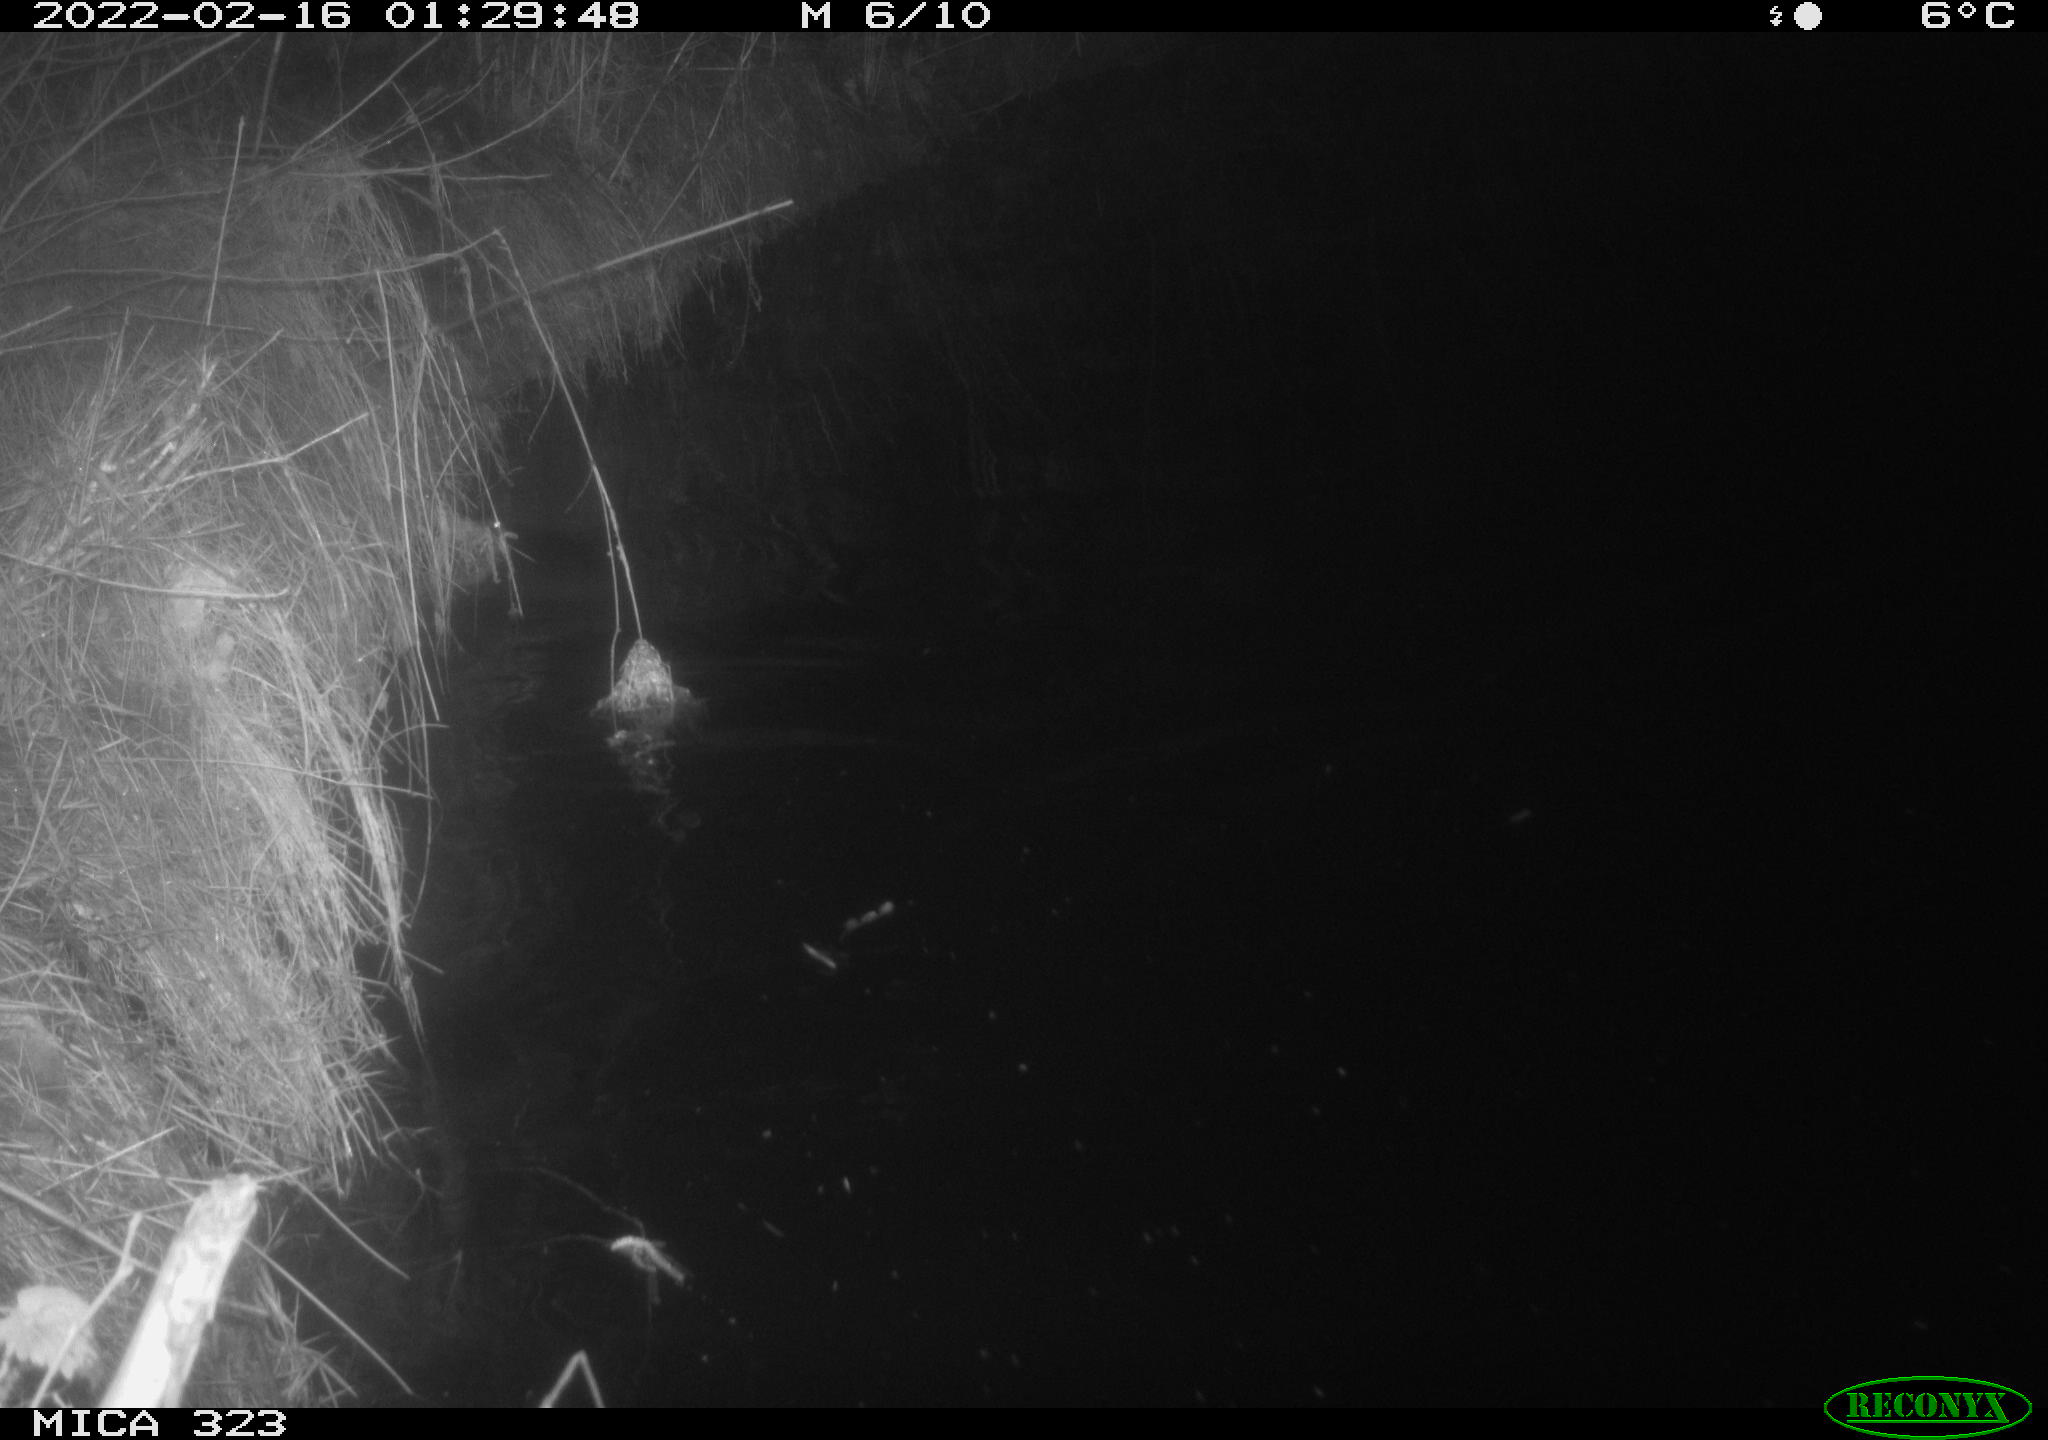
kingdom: Animalia
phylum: Chordata
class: Mammalia
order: Rodentia
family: Cricetidae
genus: Ondatra
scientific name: Ondatra zibethicus
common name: Muskrat
